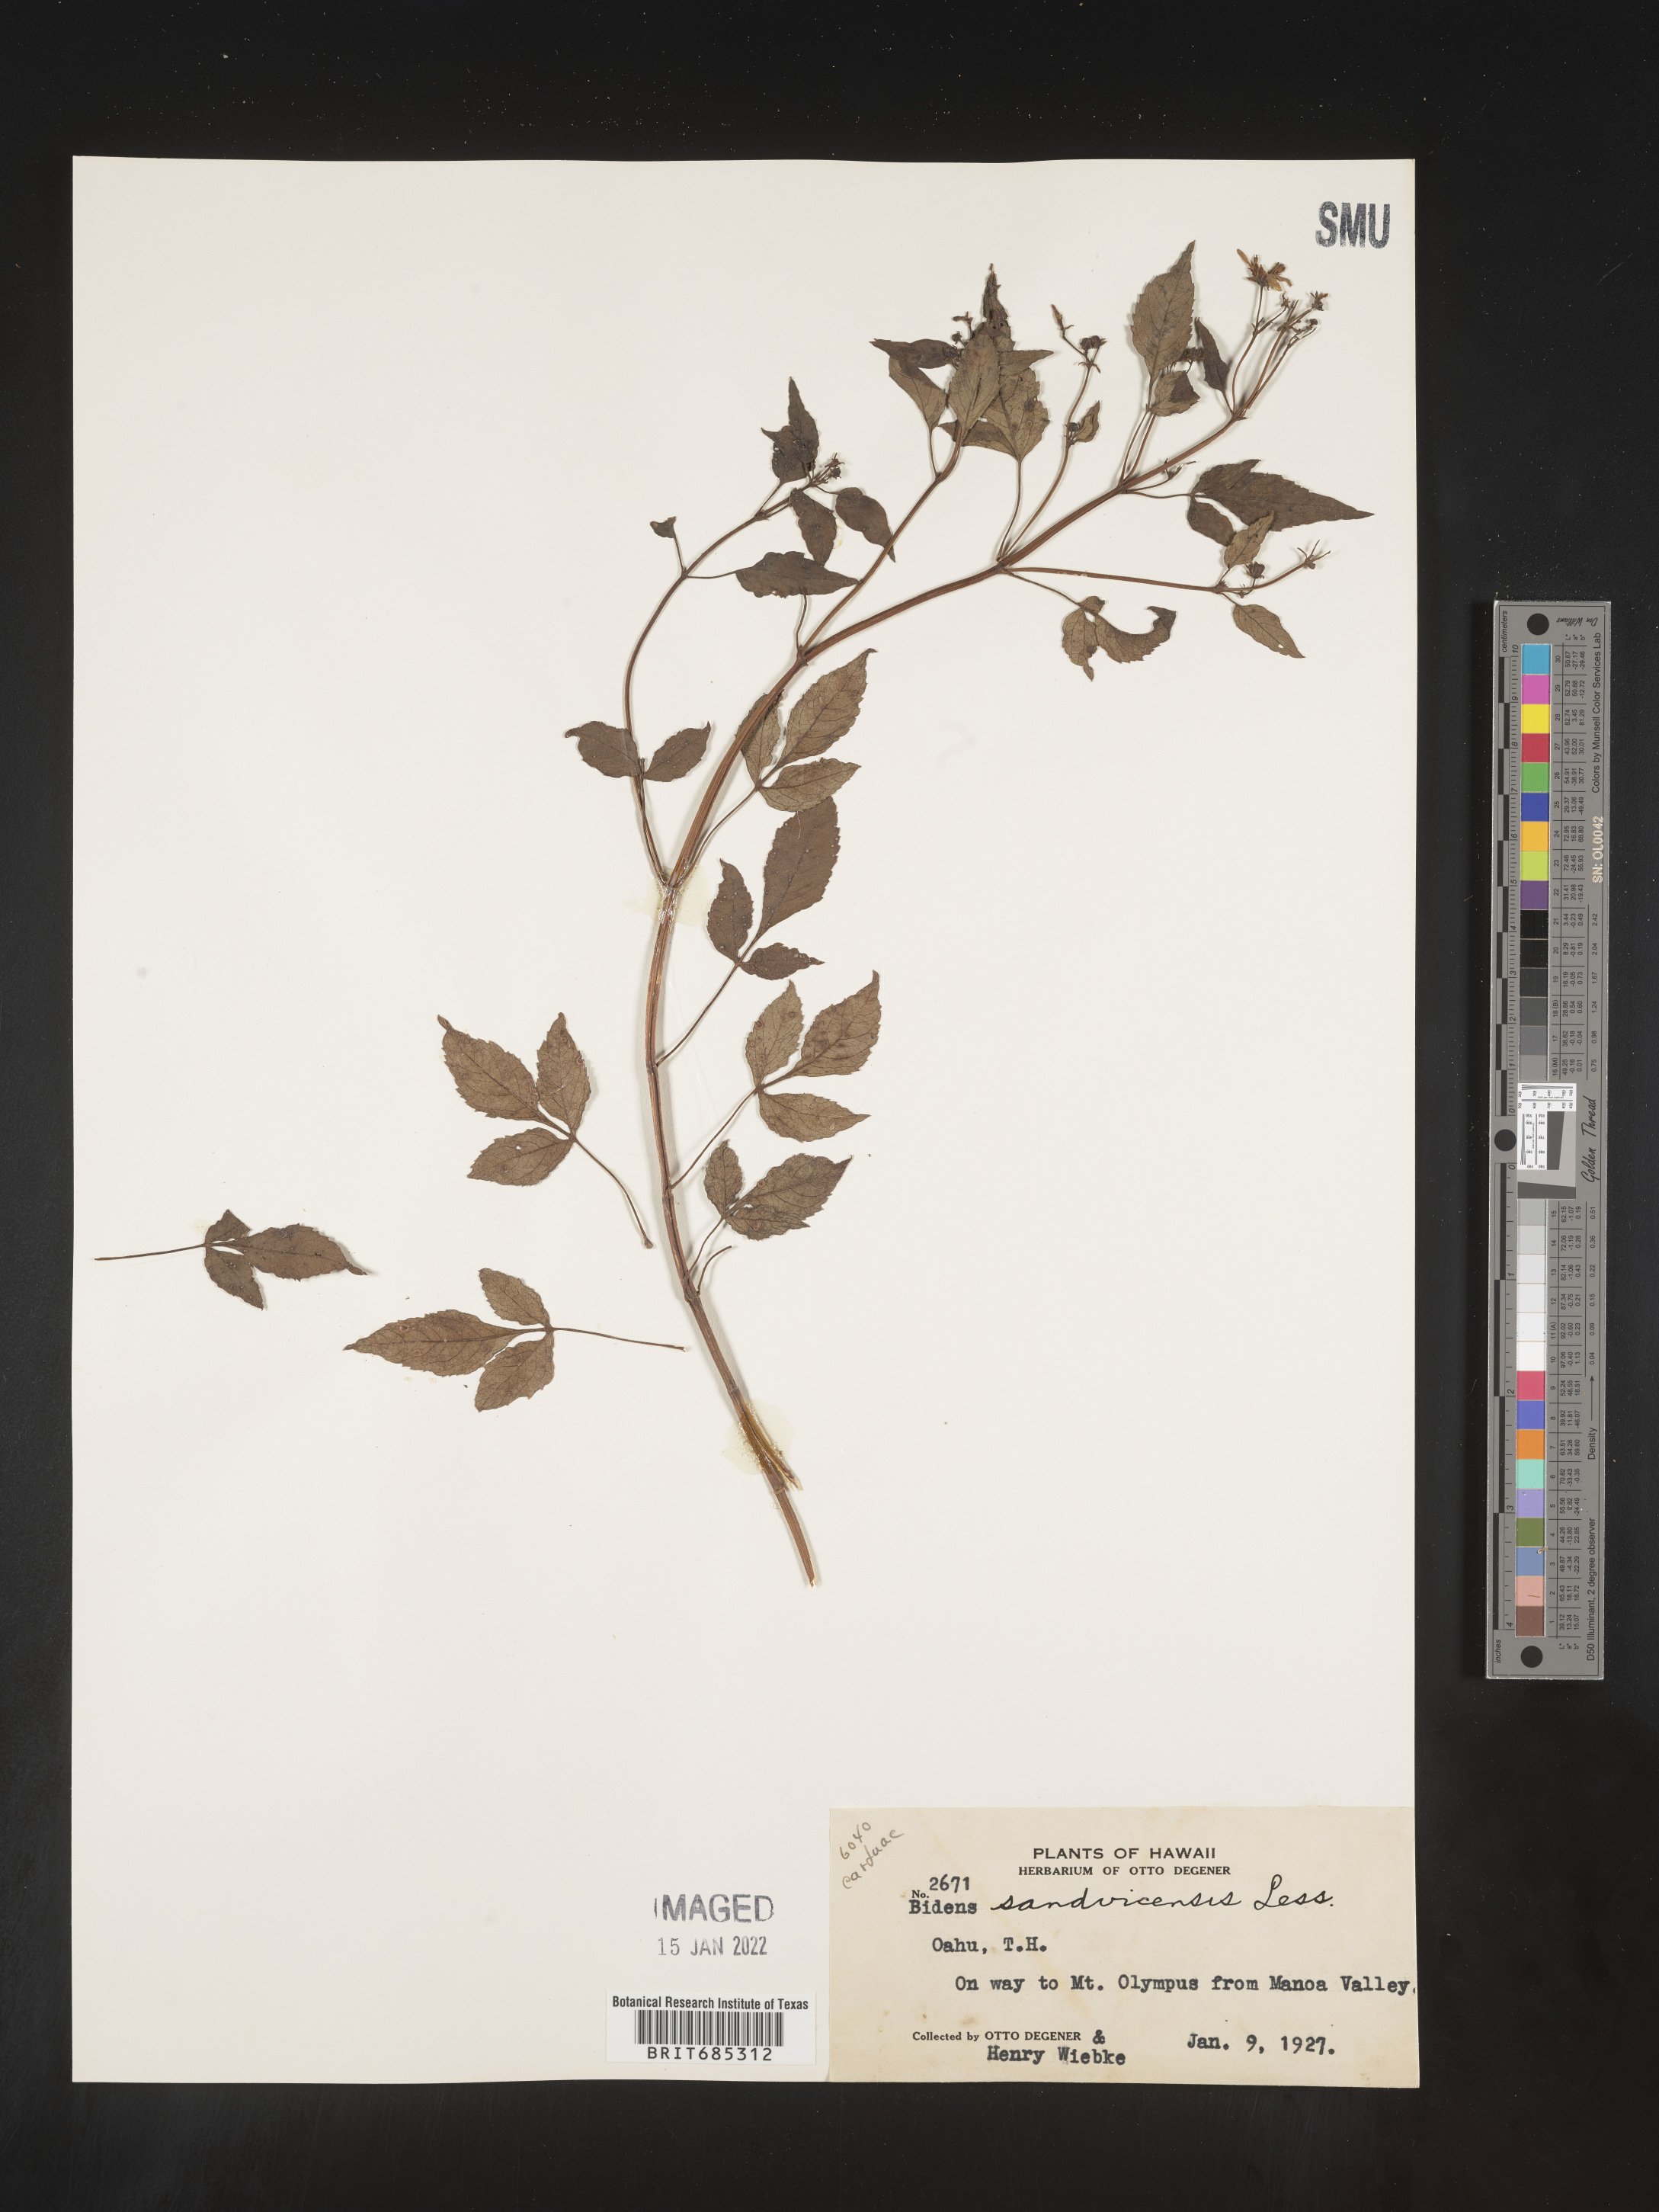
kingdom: Plantae
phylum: Tracheophyta
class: Magnoliopsida
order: Asterales
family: Asteraceae
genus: Bidens
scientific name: Bidens
